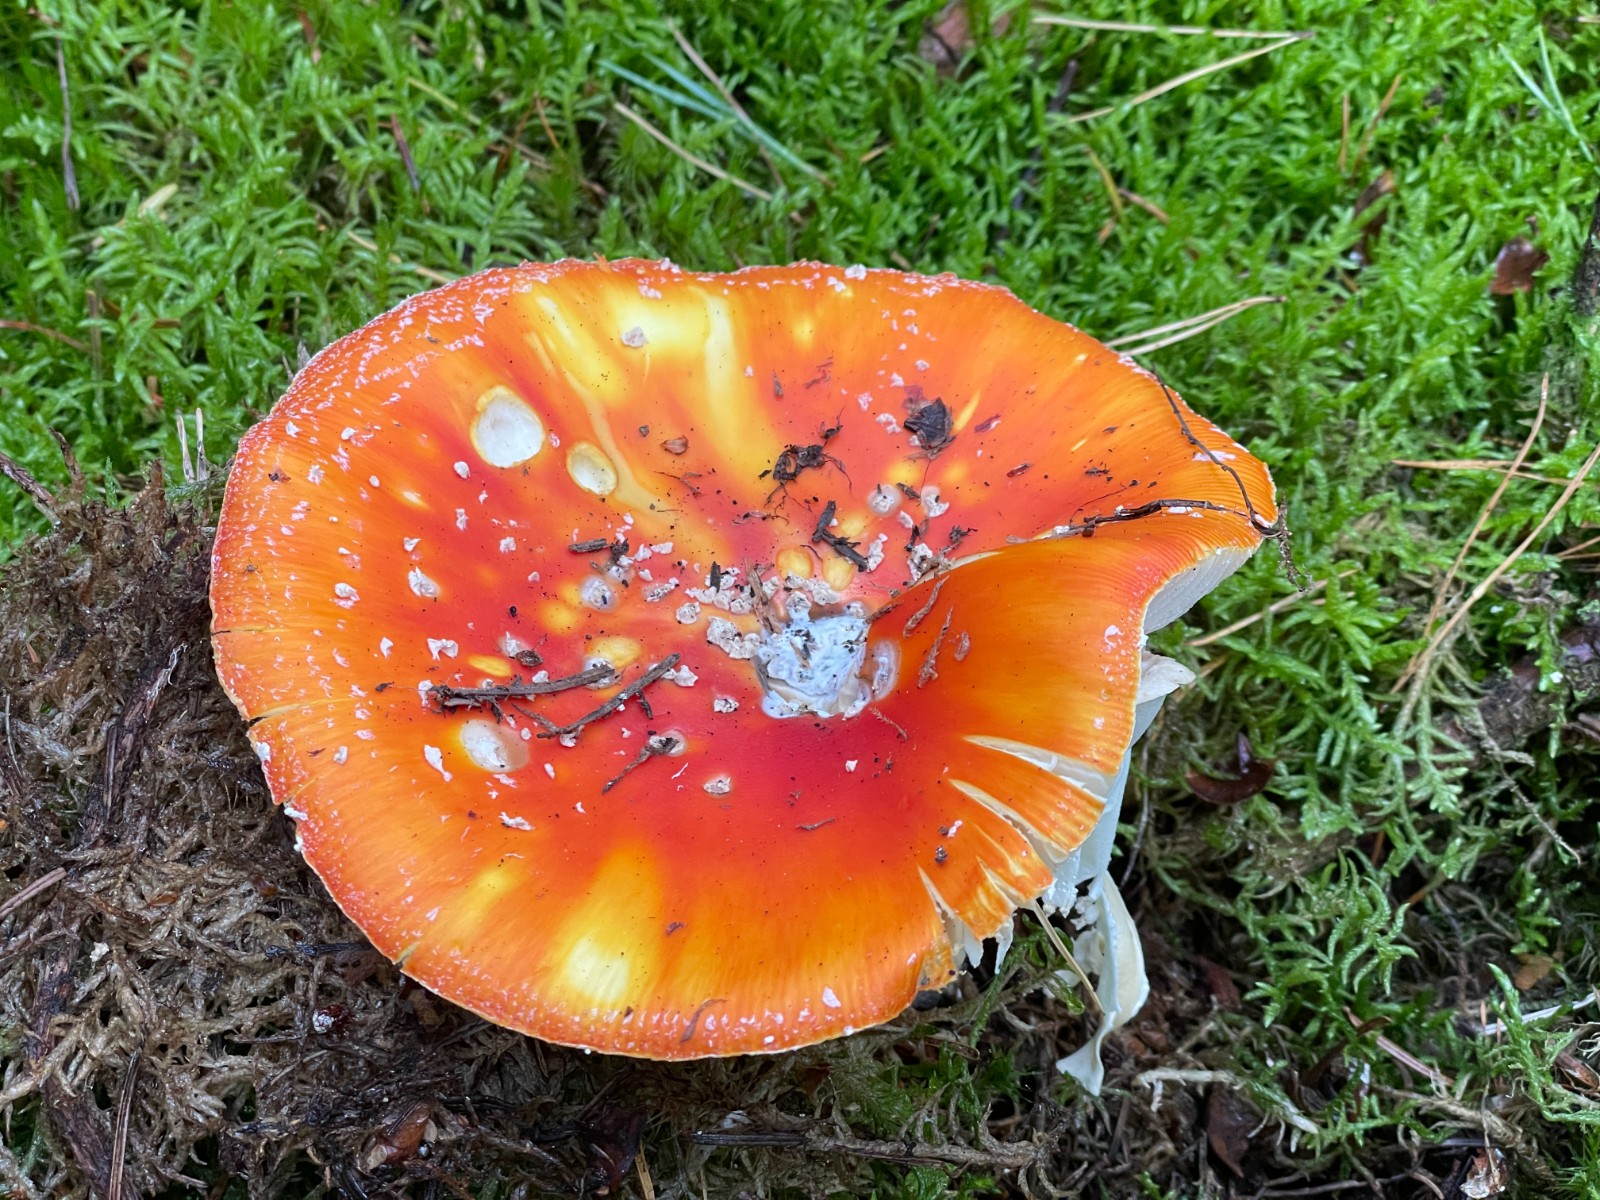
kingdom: Fungi
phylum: Basidiomycota
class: Agaricomycetes
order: Agaricales
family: Amanitaceae
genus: Amanita
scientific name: Amanita muscaria
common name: rød fluesvamp
